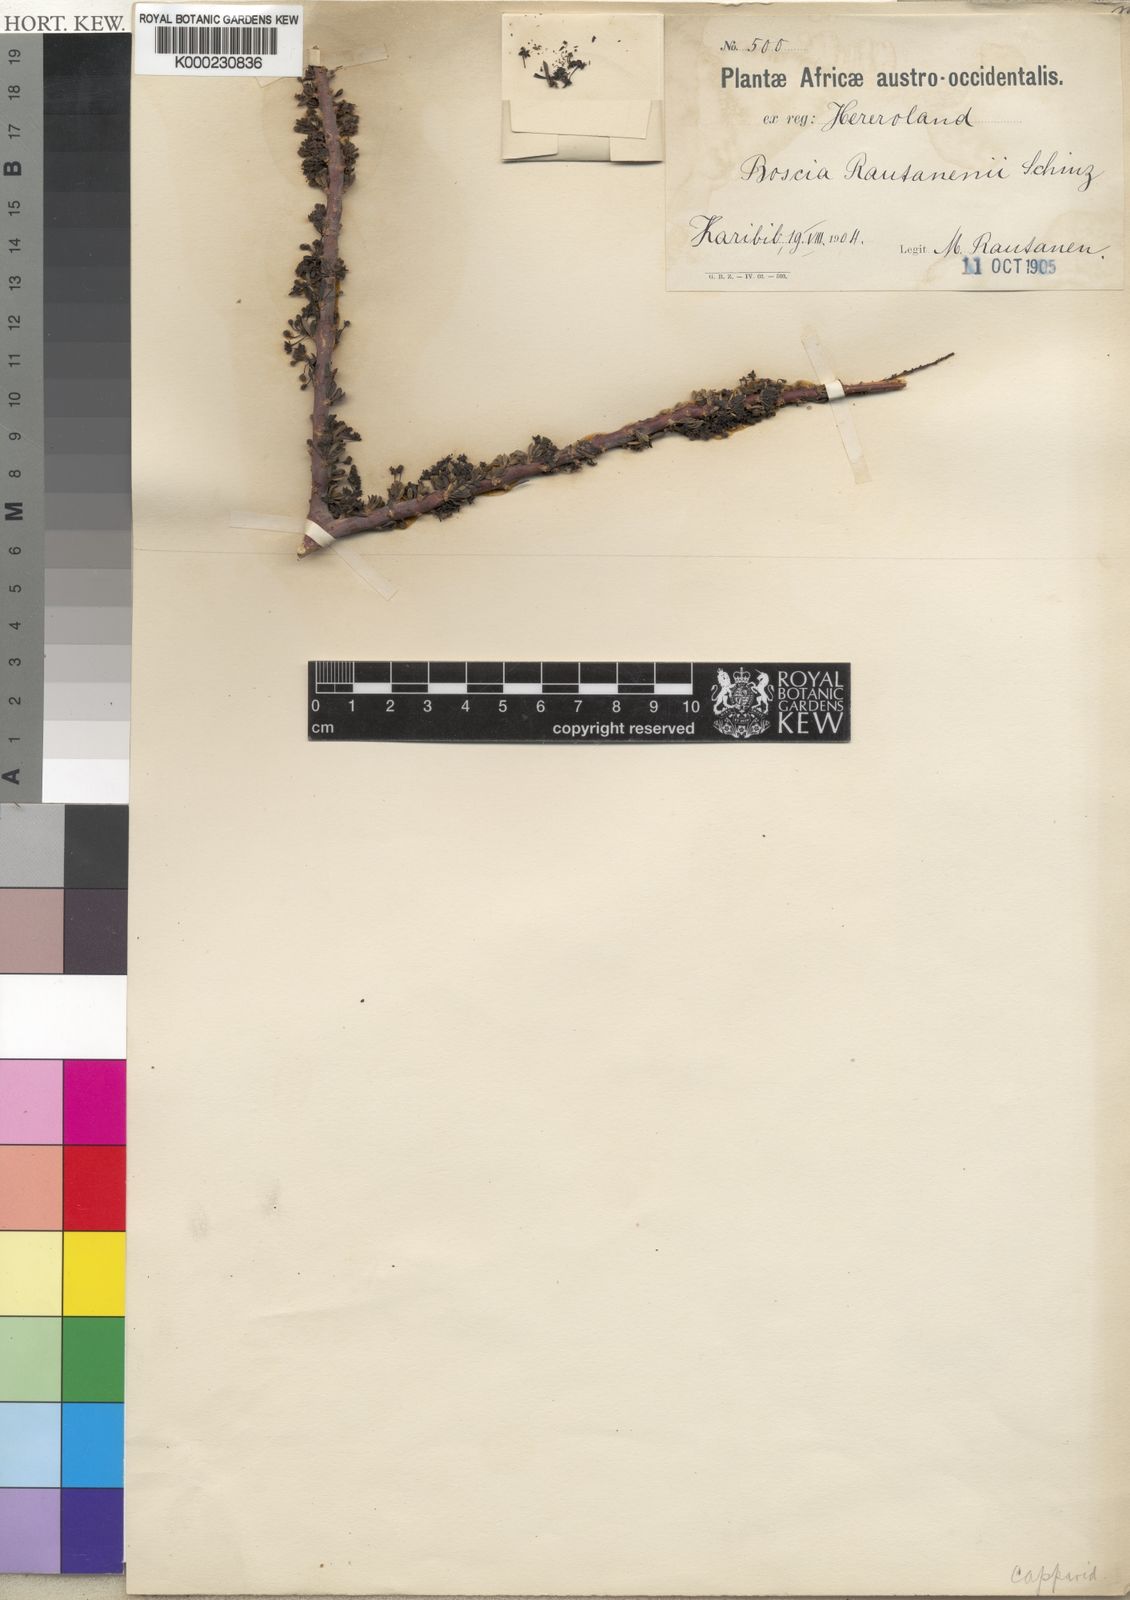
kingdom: Plantae
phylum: Tracheophyta
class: Magnoliopsida
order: Brassicales
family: Capparaceae
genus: Boscia
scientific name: Boscia foetida
